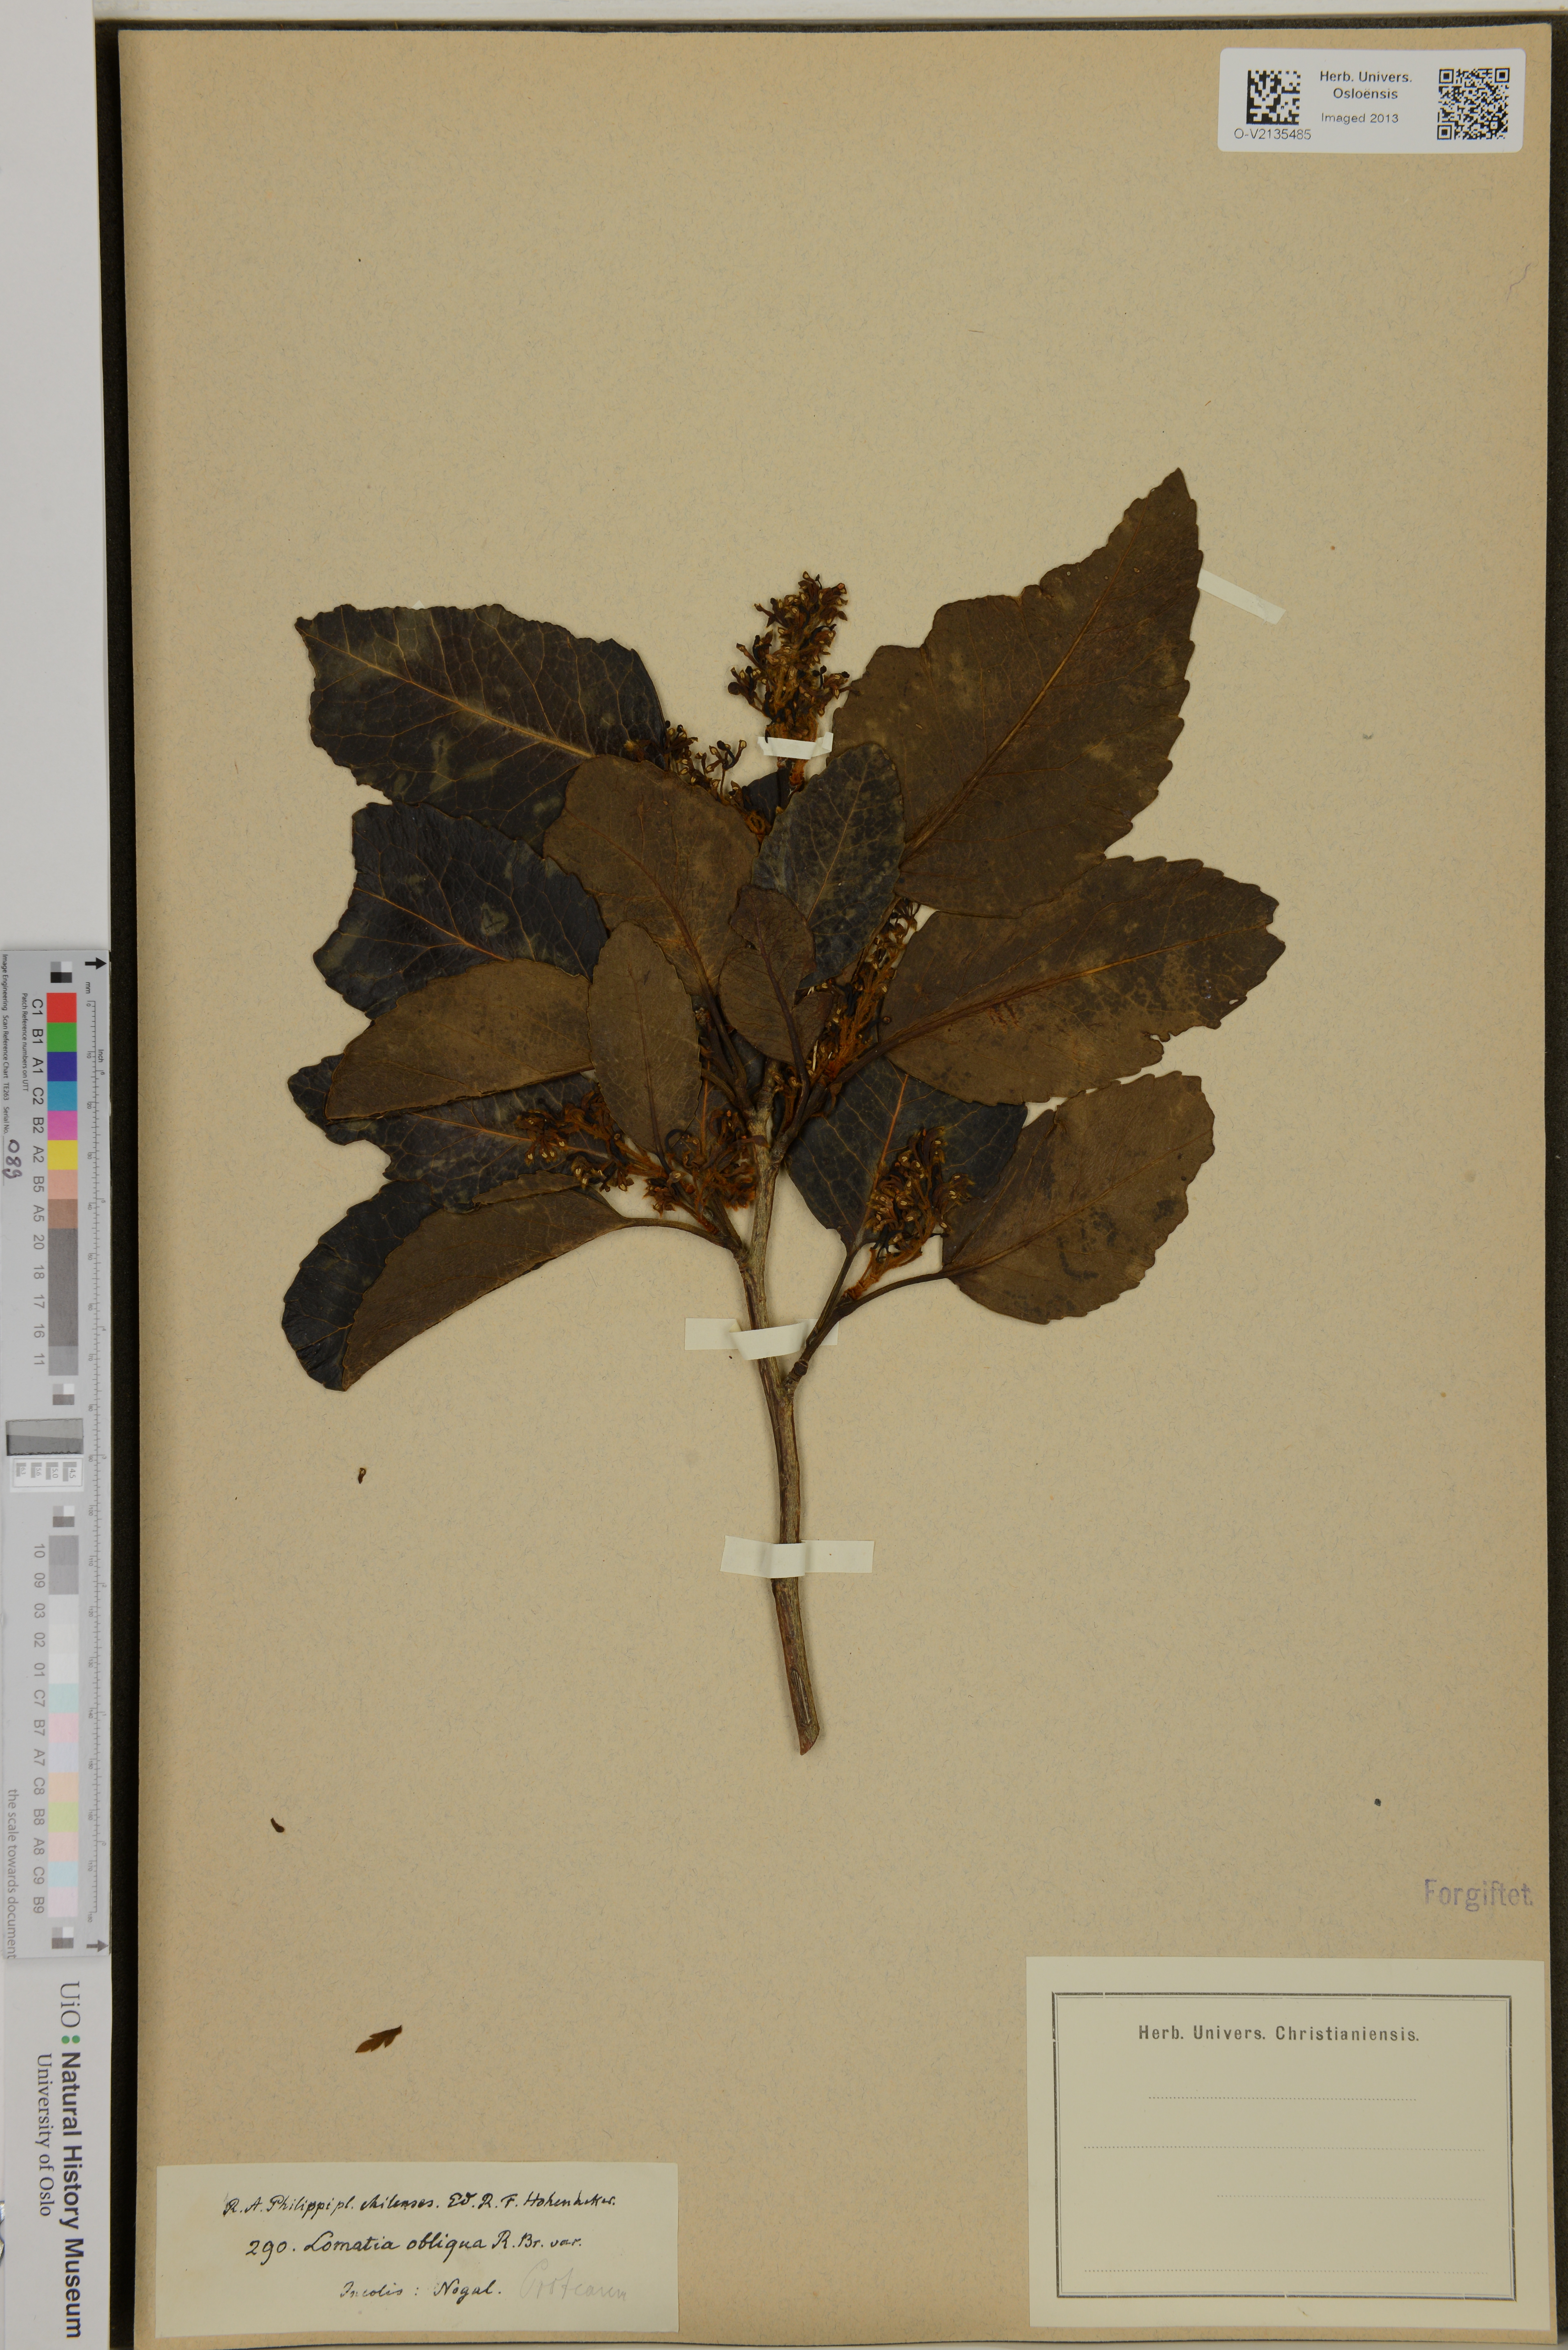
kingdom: Plantae
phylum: Tracheophyta
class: Magnoliopsida
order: Proteales
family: Proteaceae
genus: Lomatia
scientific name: Lomatia hirsuta
